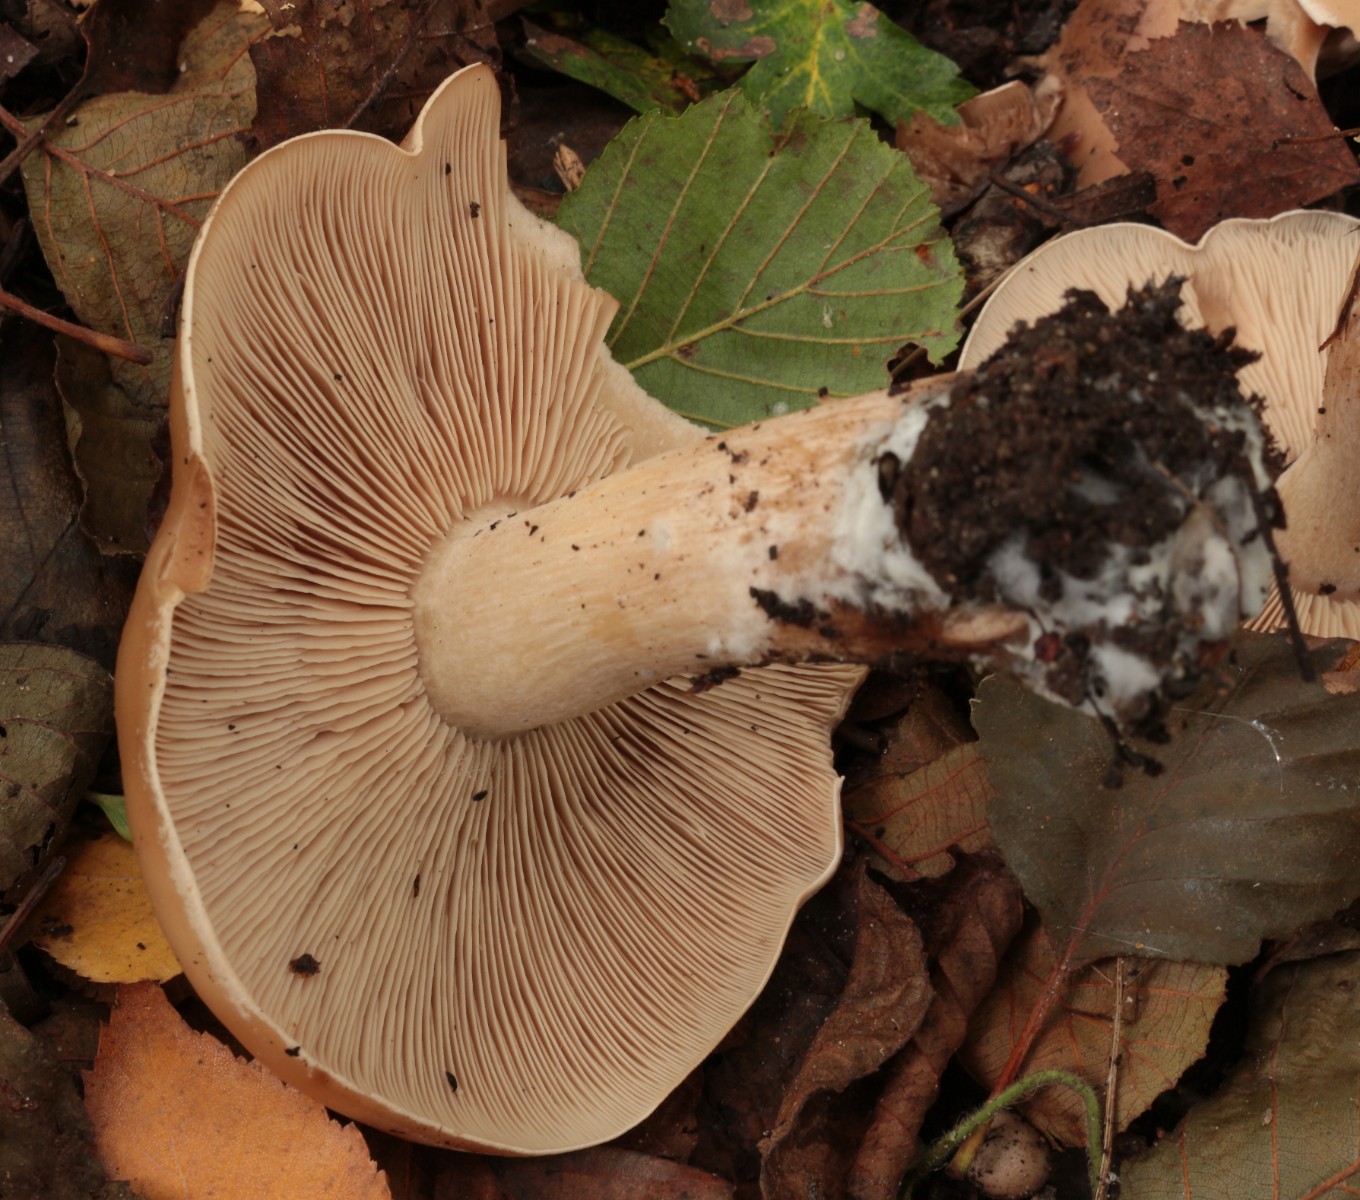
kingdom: Fungi
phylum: Basidiomycota
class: Agaricomycetes
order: Agaricales
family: Tricholomataceae
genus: Lepista
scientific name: Lepista irina
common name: violduftende hekseringshat
